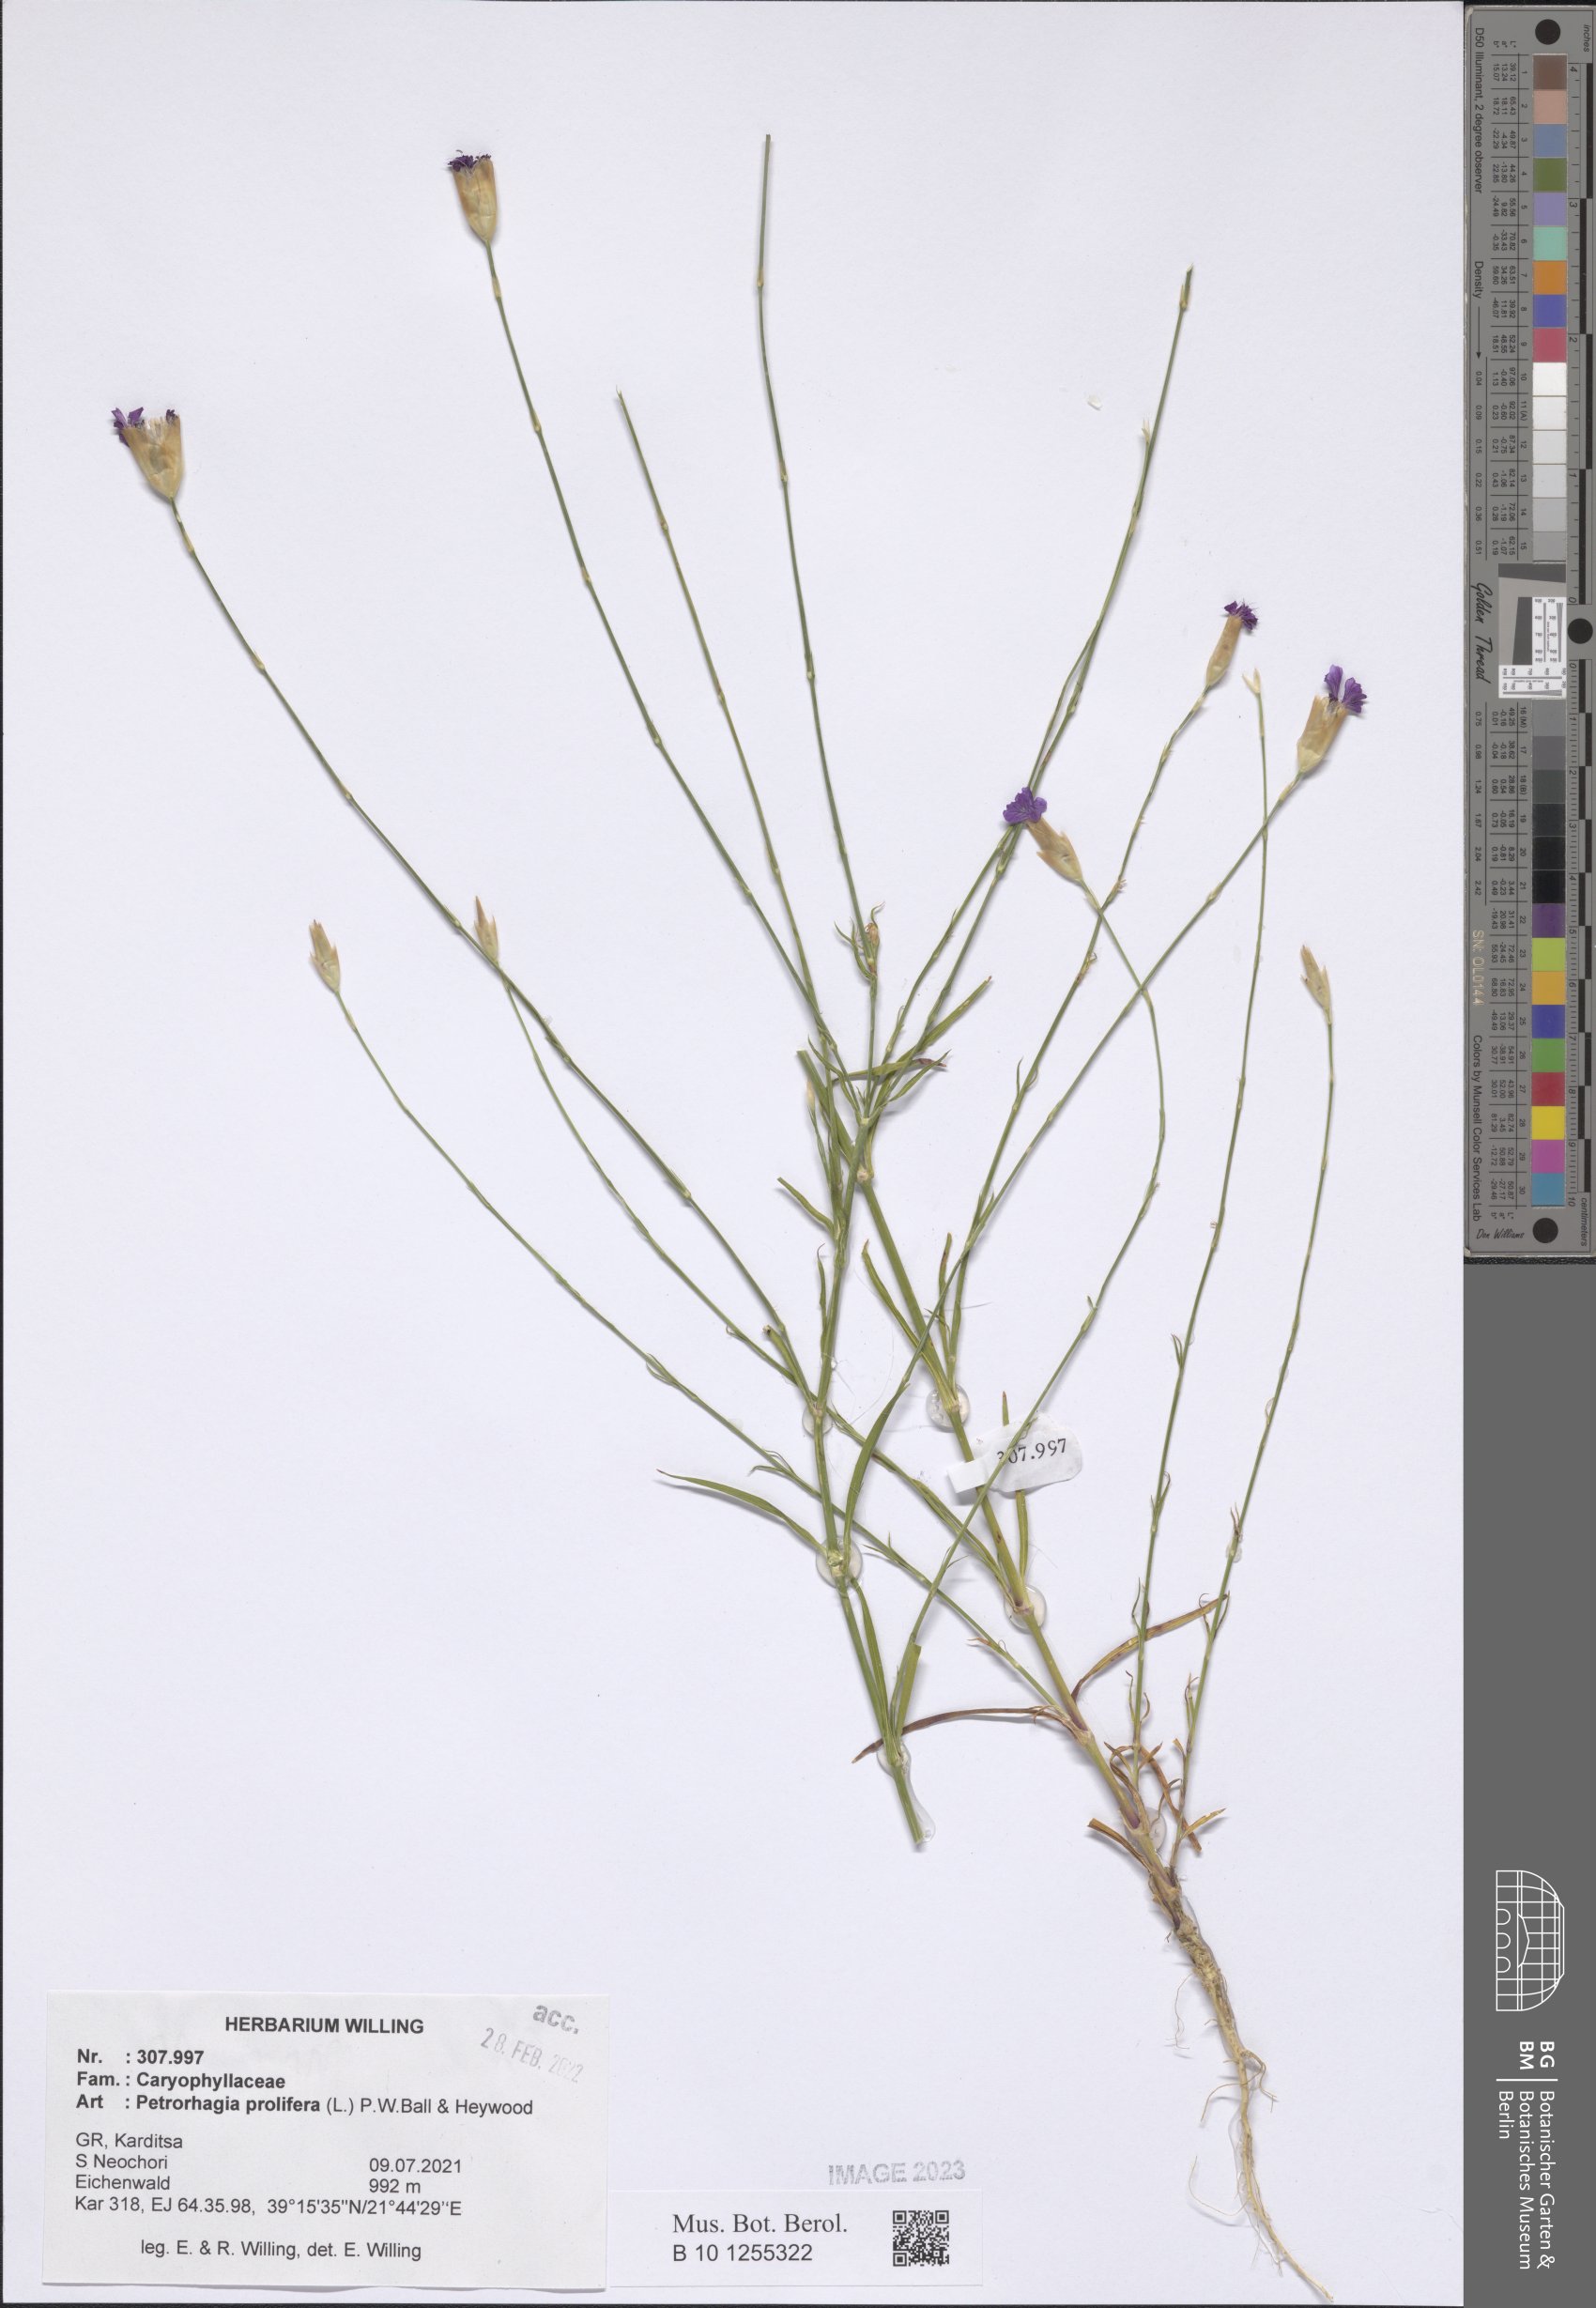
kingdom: Plantae
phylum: Tracheophyta
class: Magnoliopsida
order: Caryophyllales
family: Caryophyllaceae
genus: Petrorhagia
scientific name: Petrorhagia prolifera
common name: Proliferous pink
